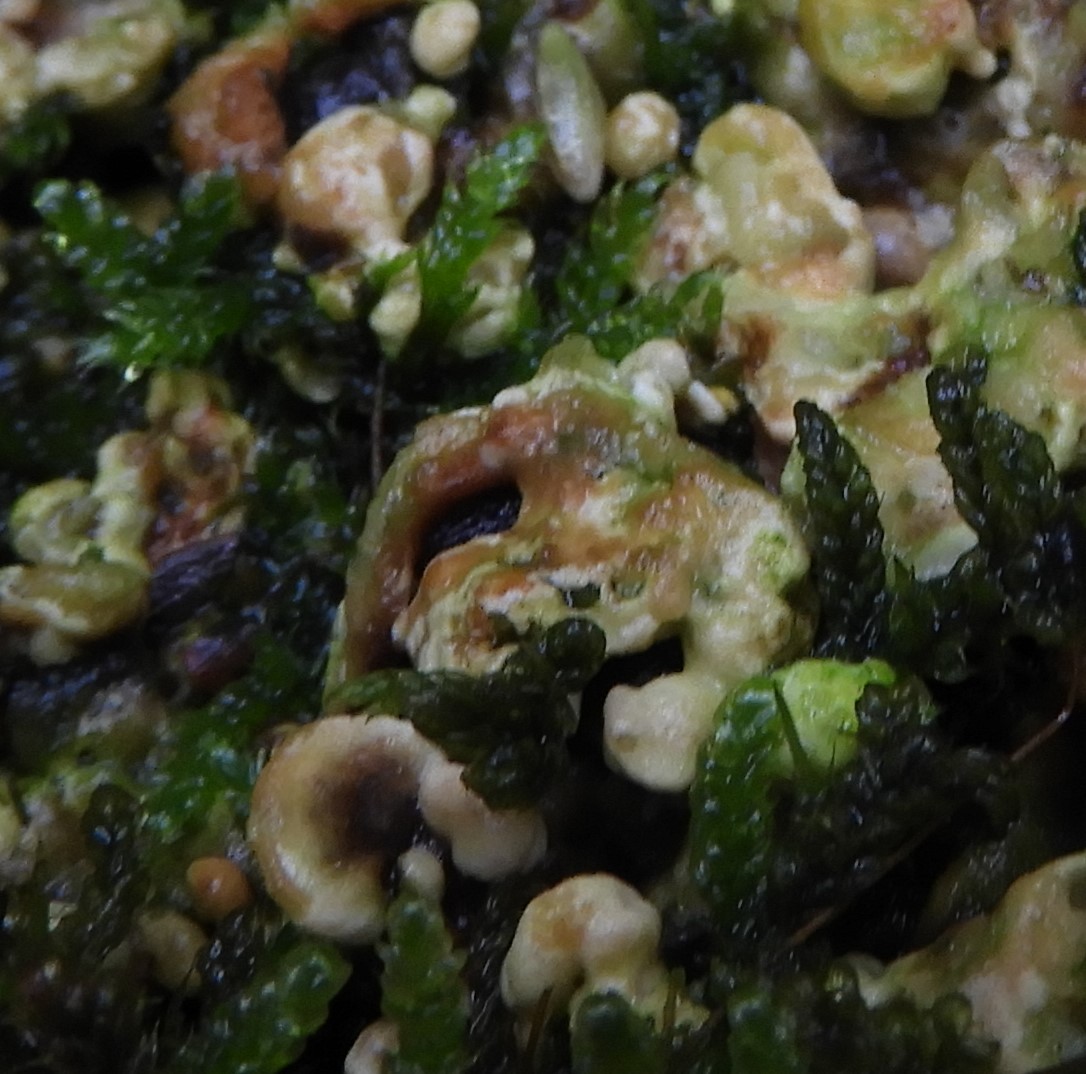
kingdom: Fungi
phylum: Basidiomycota
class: Agaricomycetes
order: Polyporales
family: Polyporaceae
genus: Trametes
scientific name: Trametes
